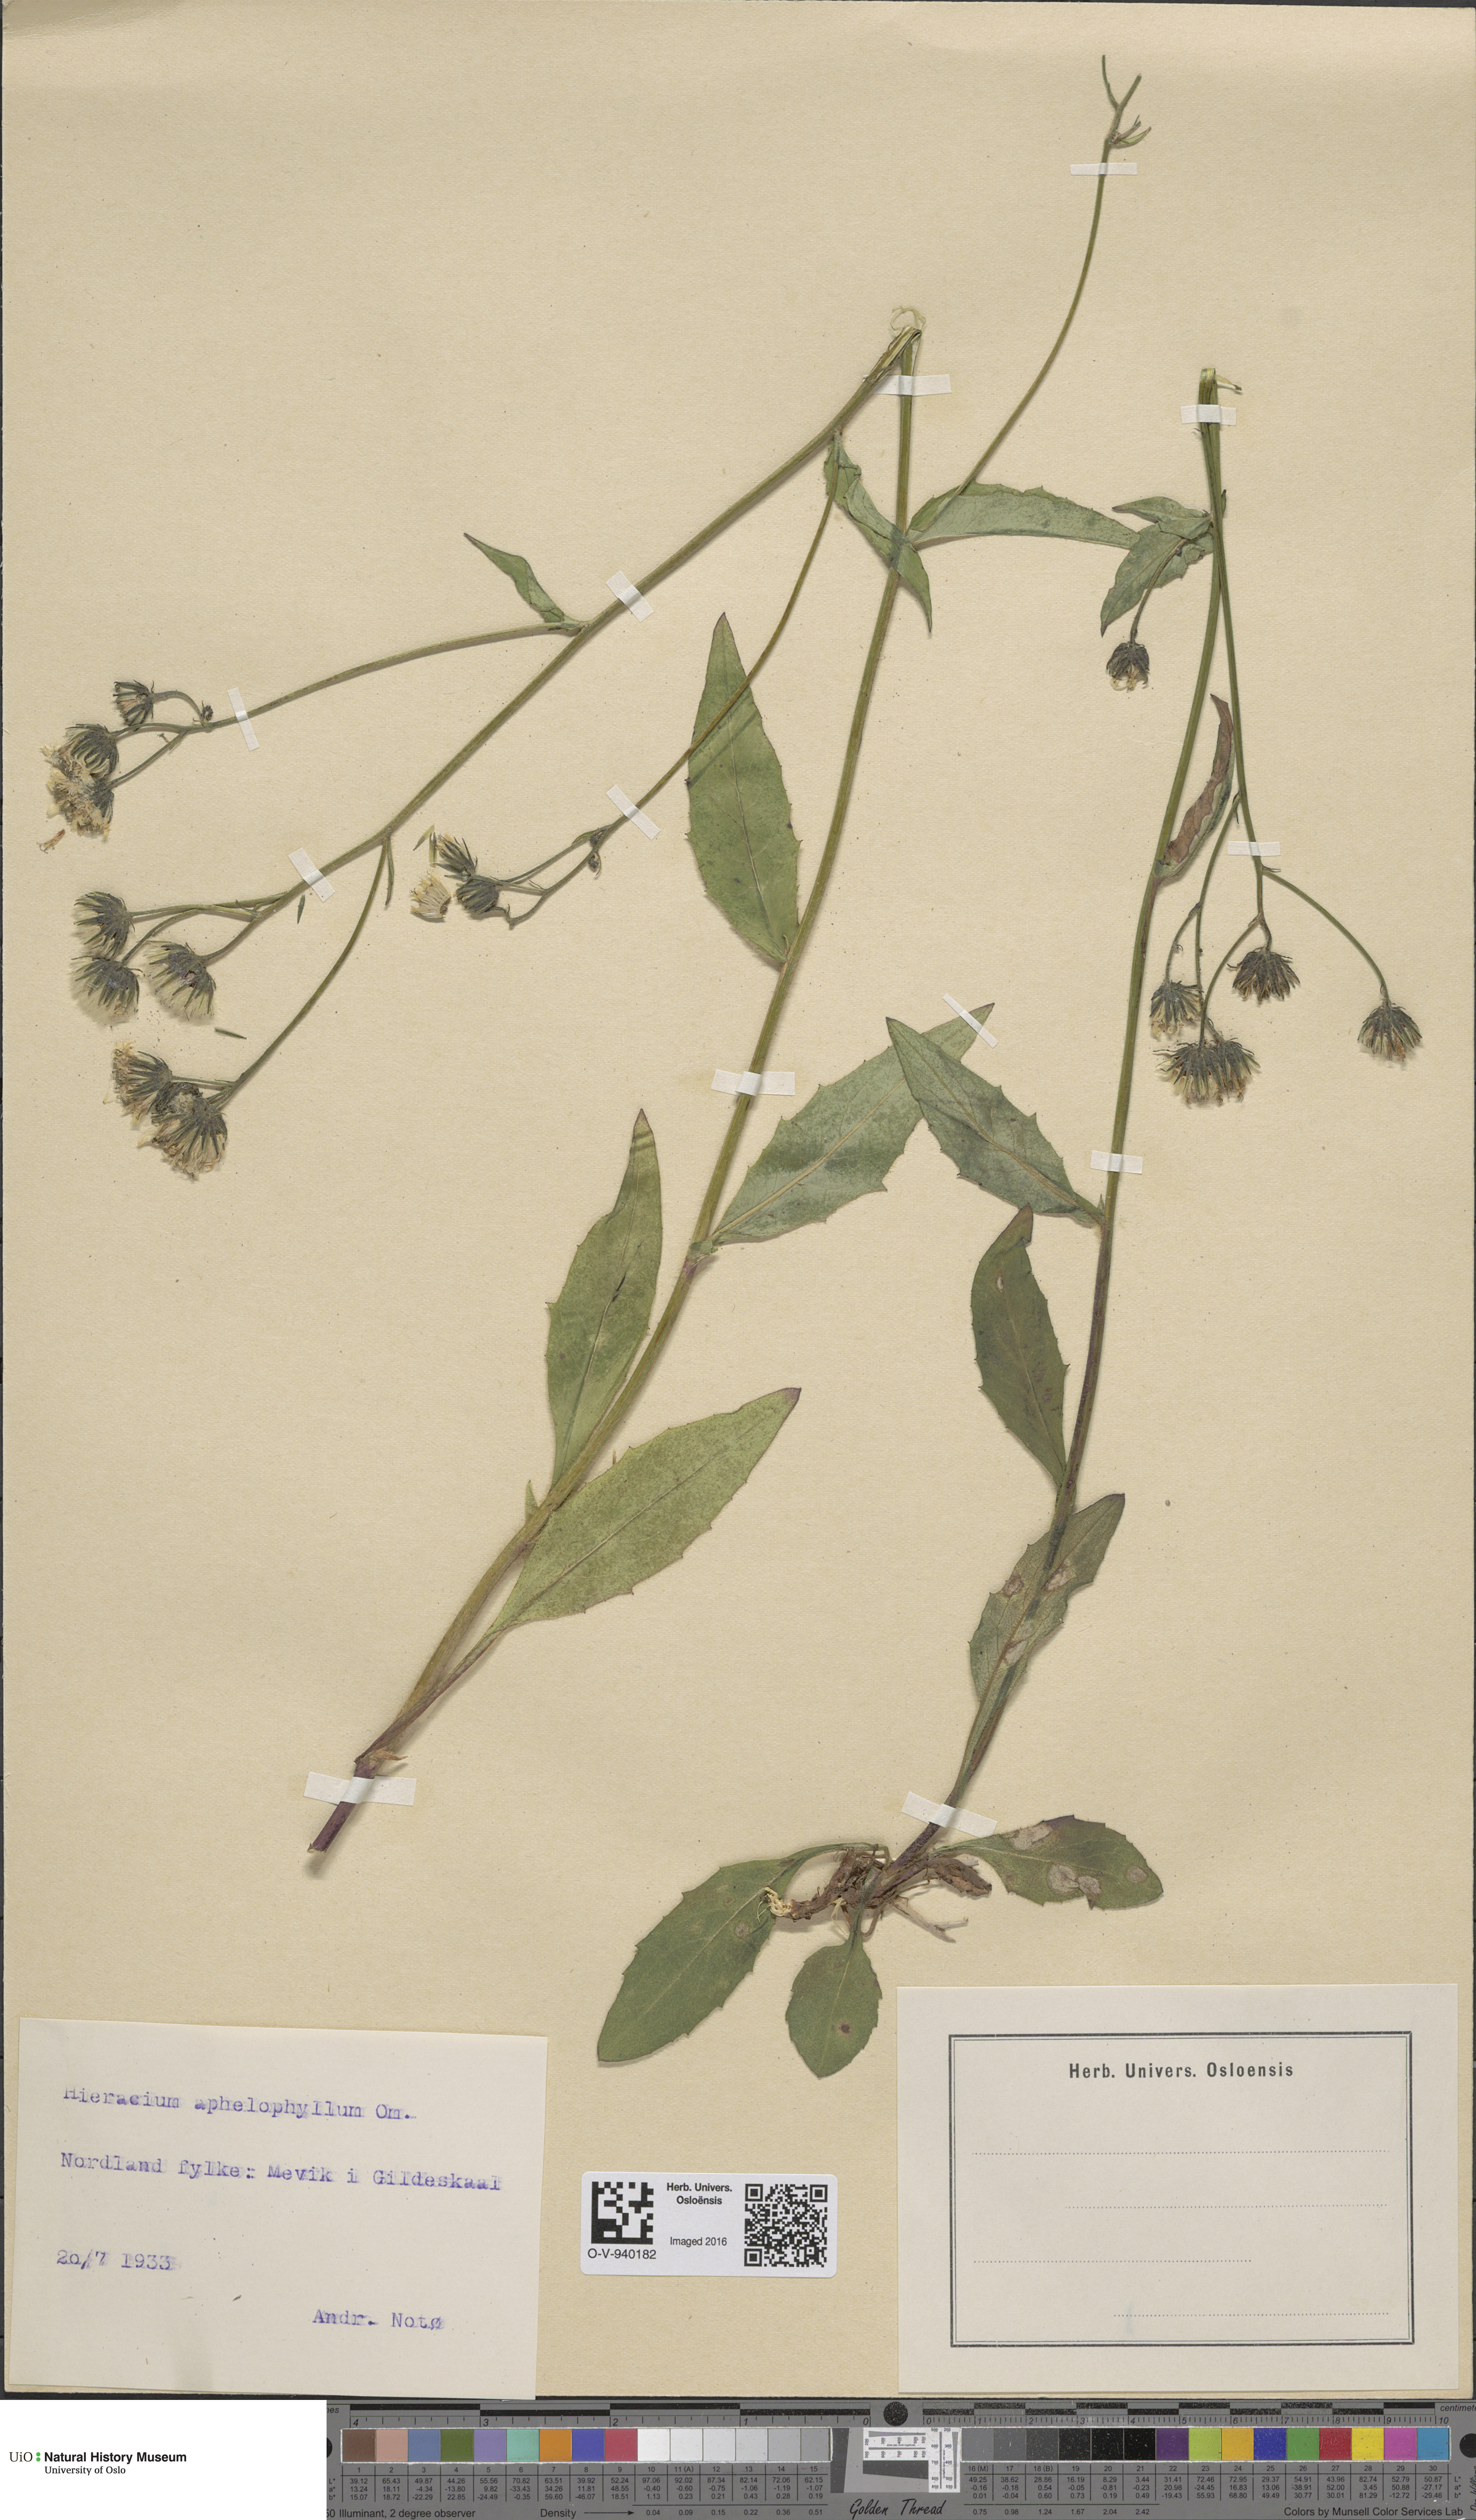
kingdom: Plantae
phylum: Tracheophyta
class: Magnoliopsida
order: Asterales
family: Asteraceae
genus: Hieracium
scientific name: Hieracium dovrense
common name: Dovre hawkweed
